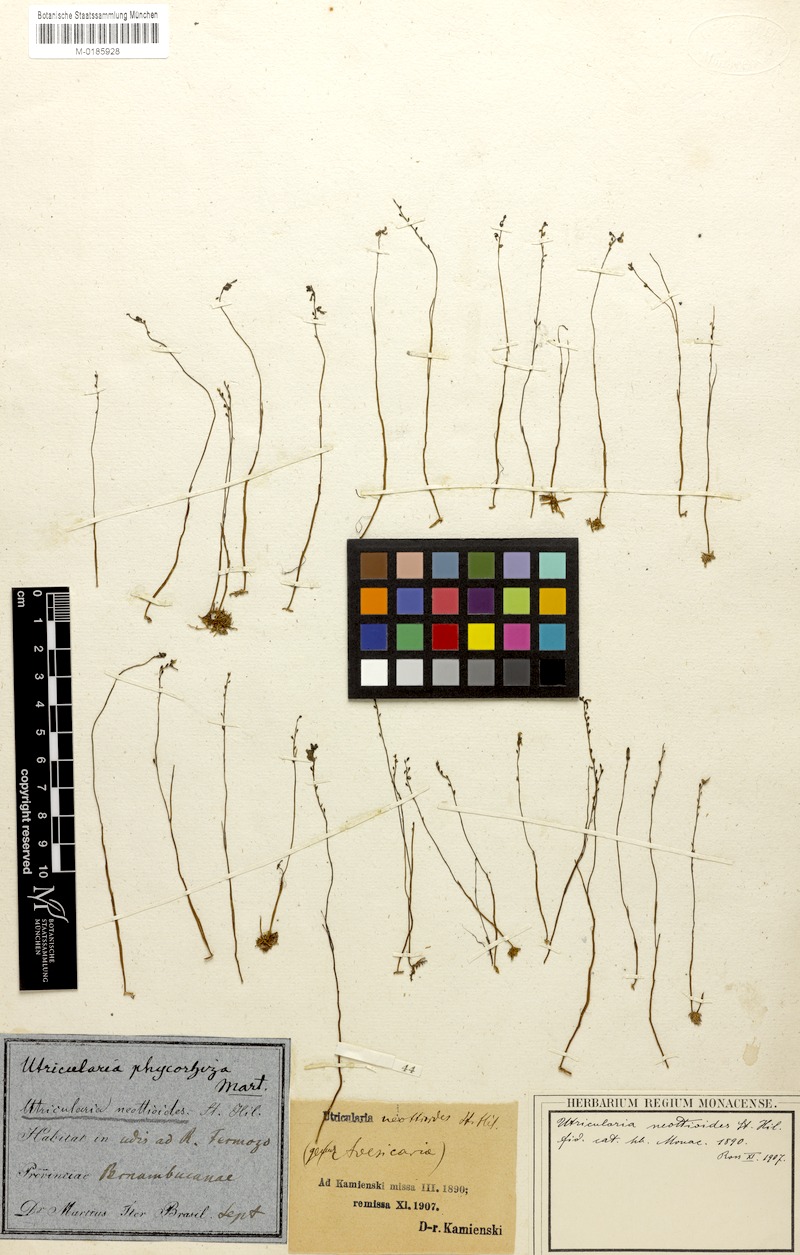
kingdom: Plantae
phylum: Tracheophyta
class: Magnoliopsida
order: Lamiales
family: Lentibulariaceae
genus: Utricularia
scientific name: Utricularia neottioides
